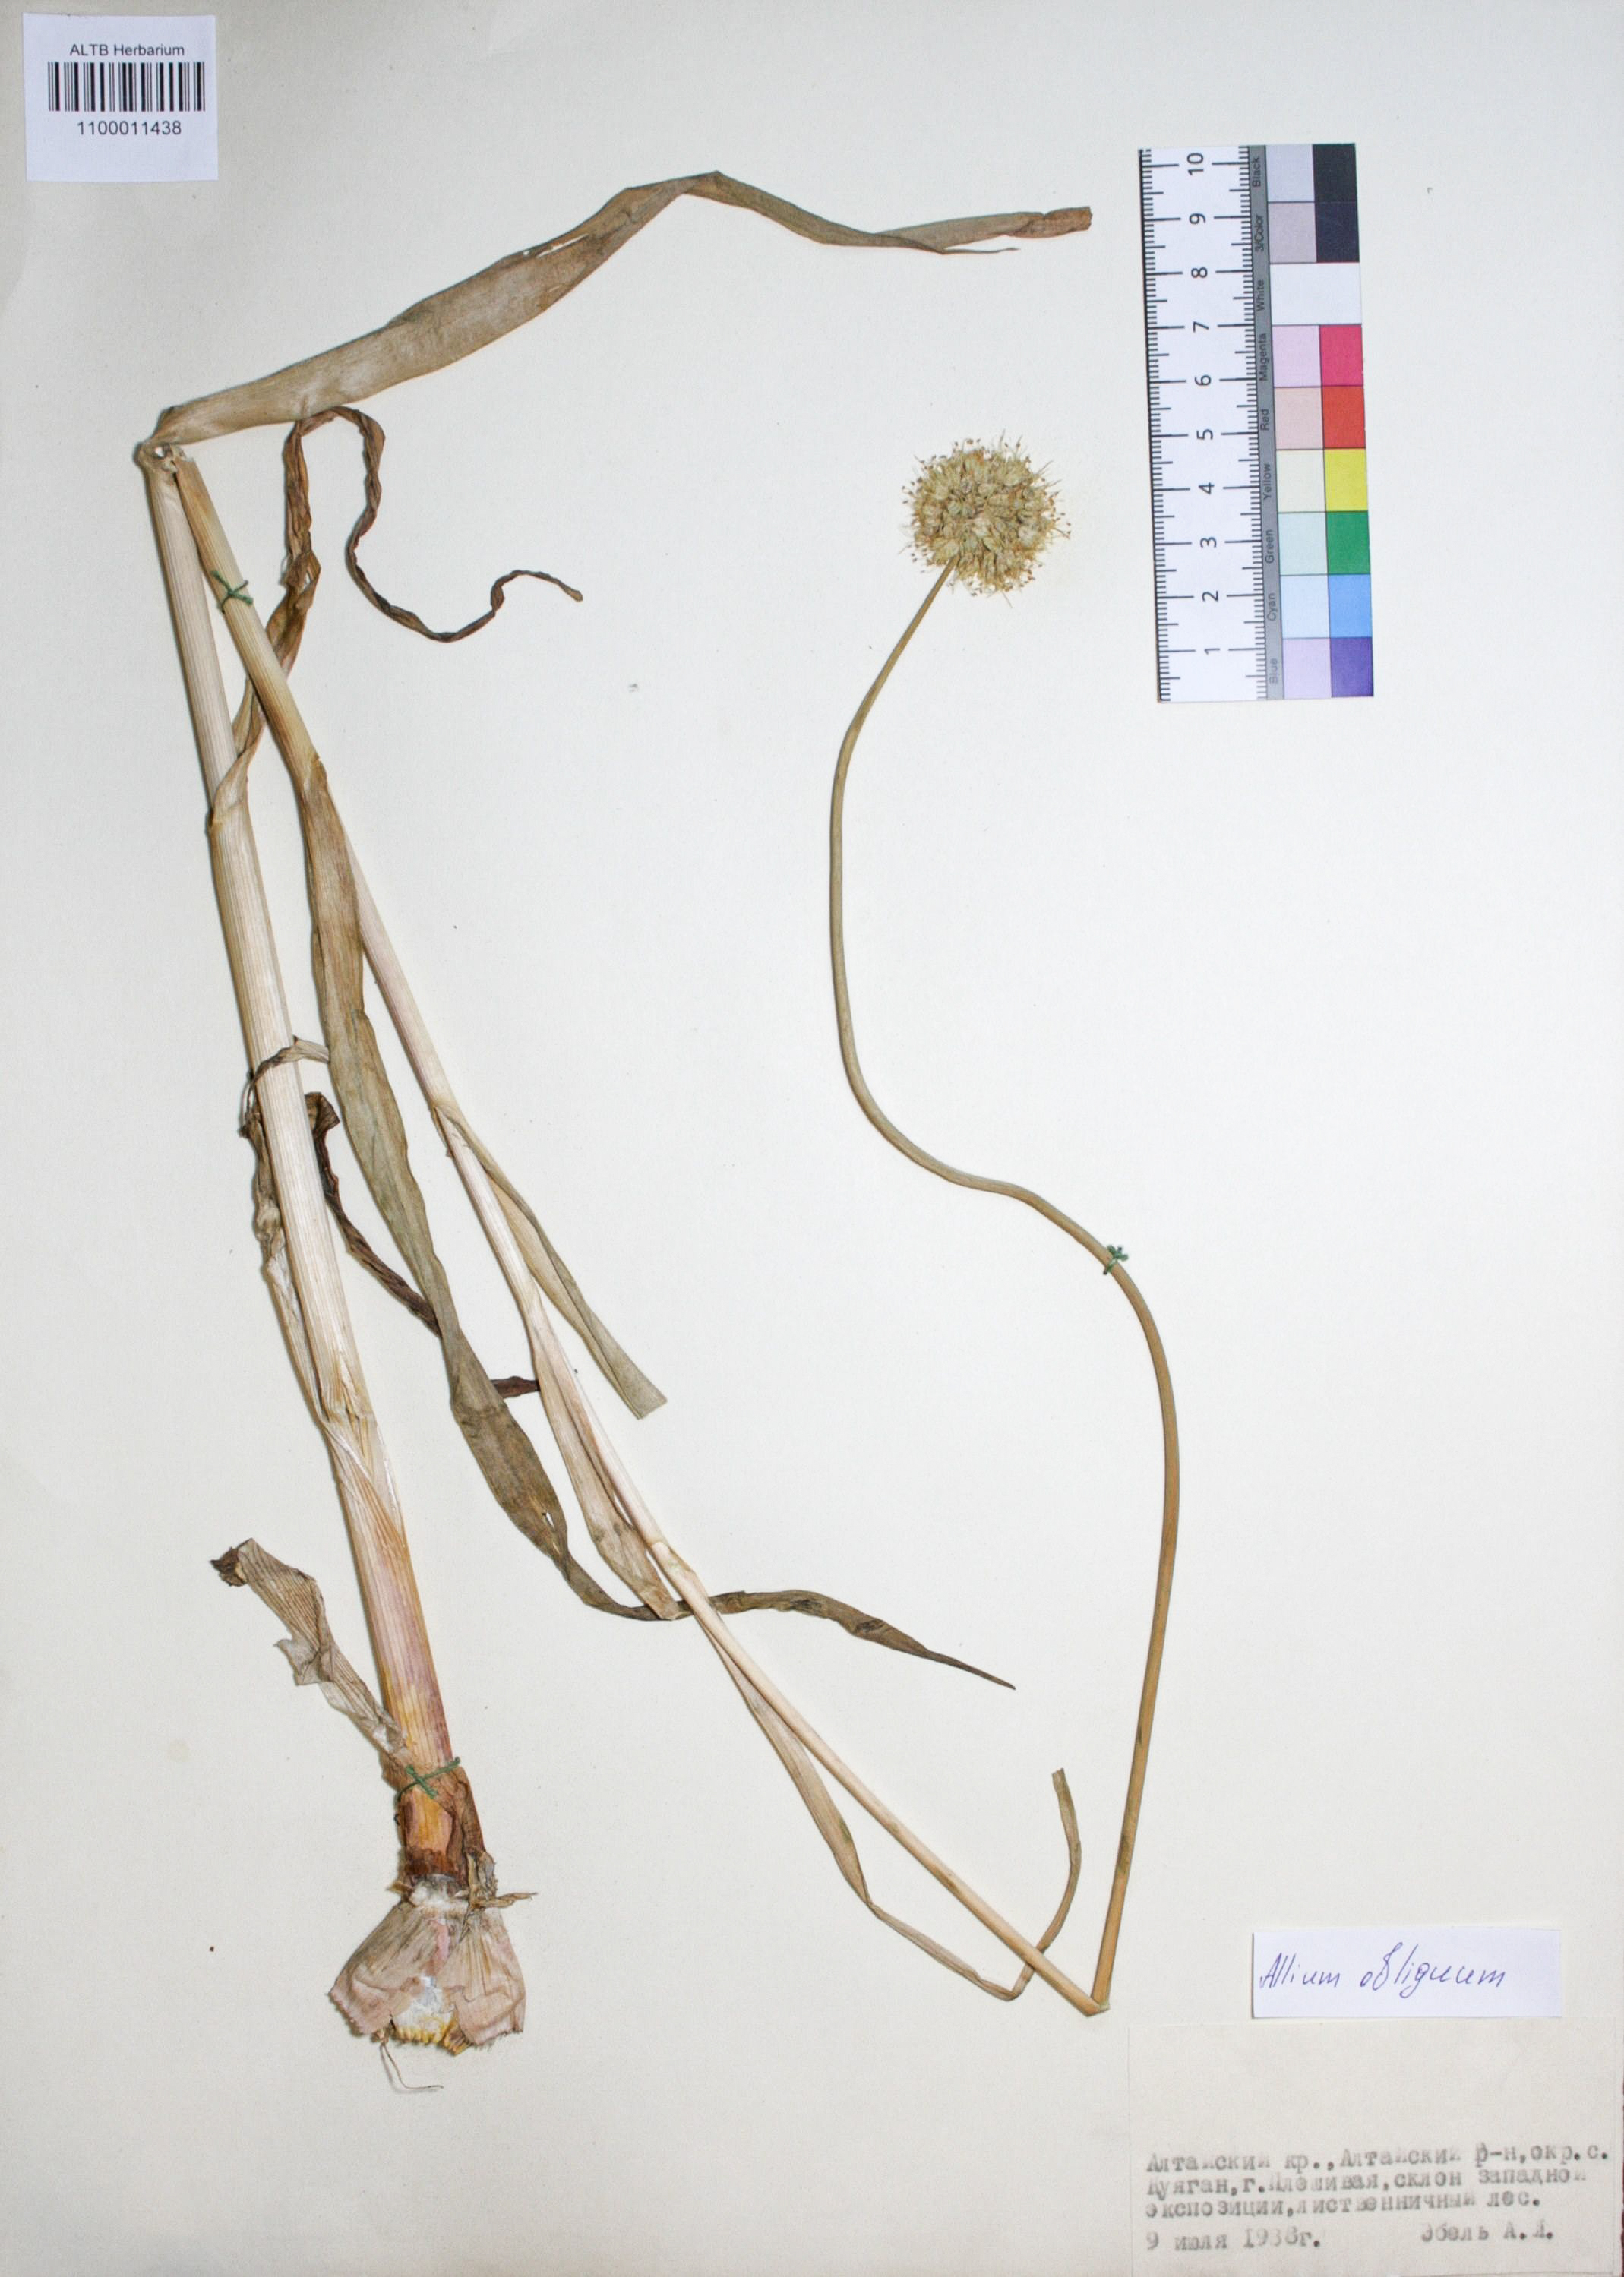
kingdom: Plantae
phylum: Tracheophyta
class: Liliopsida
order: Asparagales
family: Amaryllidaceae
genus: Allium
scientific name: Allium obliquum
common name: Oblique onion
